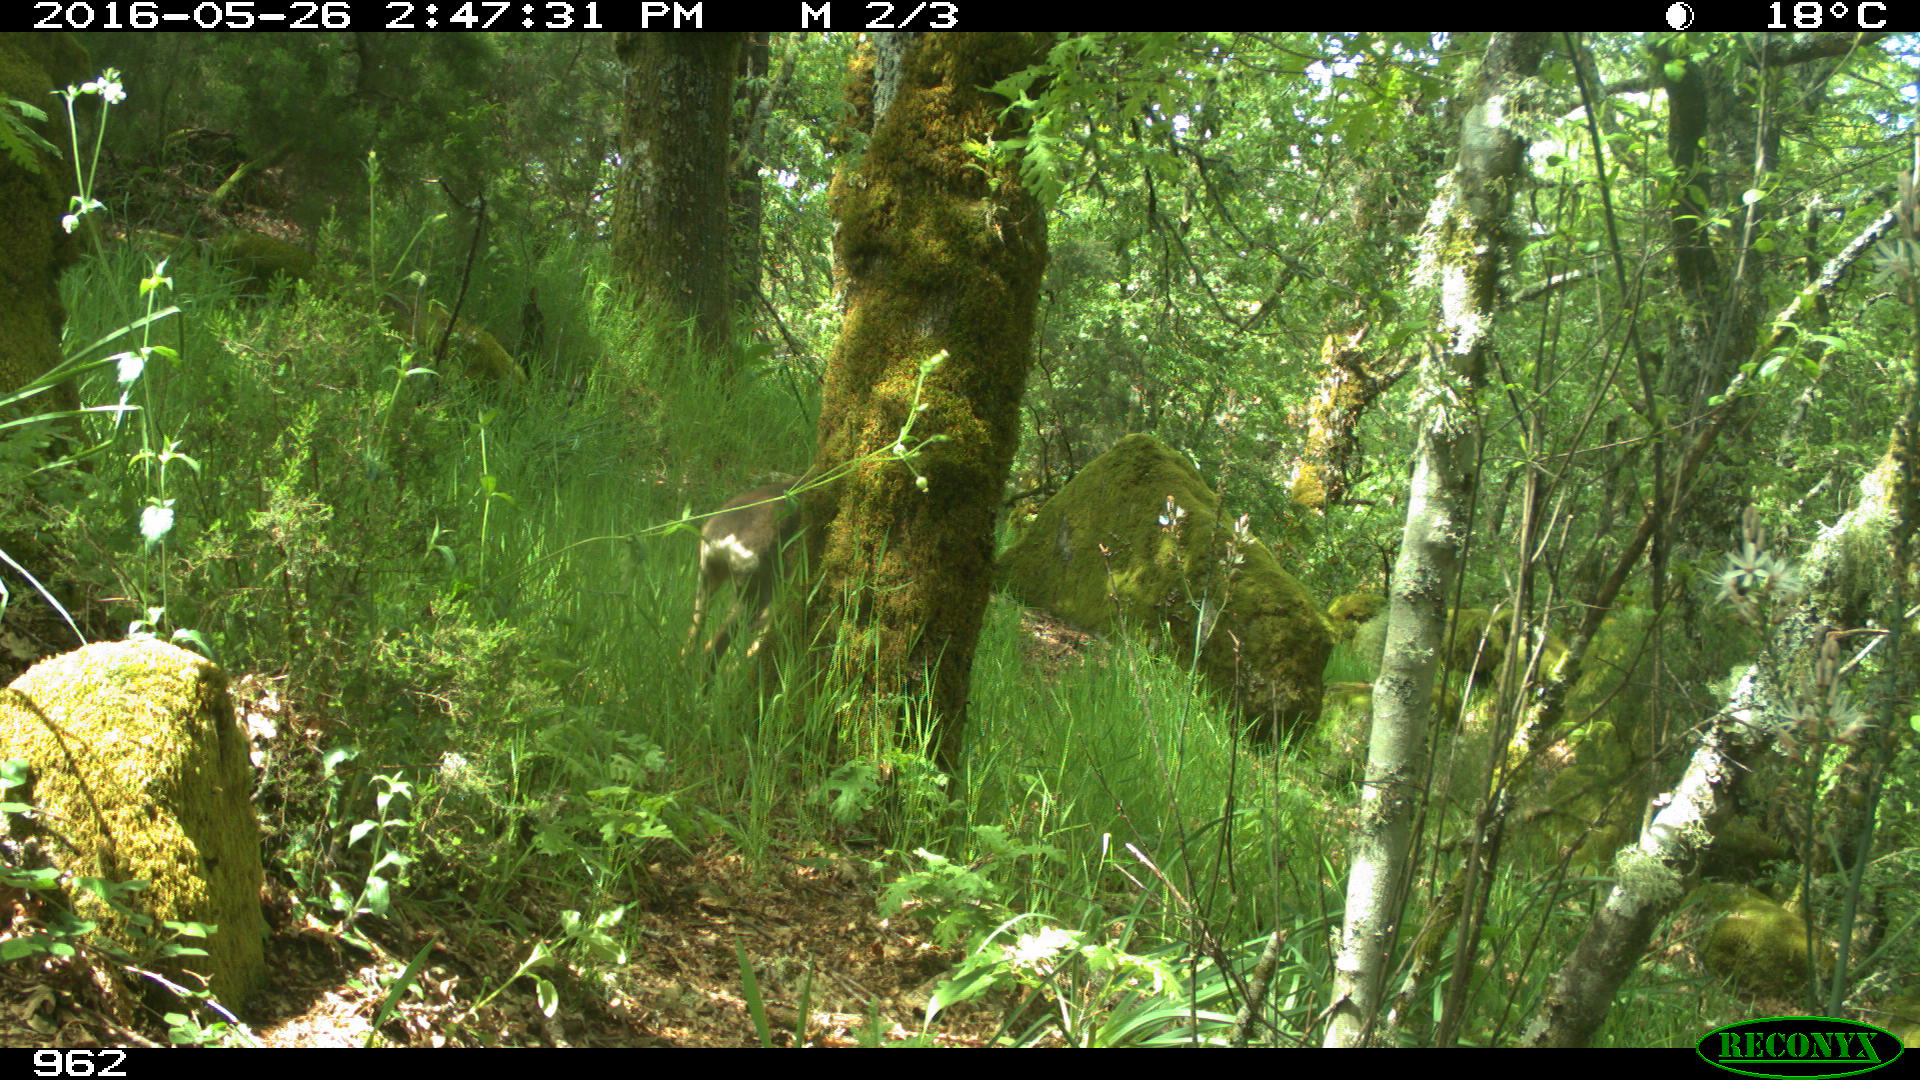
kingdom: Animalia
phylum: Chordata
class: Mammalia
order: Artiodactyla
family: Cervidae
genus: Capreolus
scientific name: Capreolus capreolus
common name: Western roe deer
